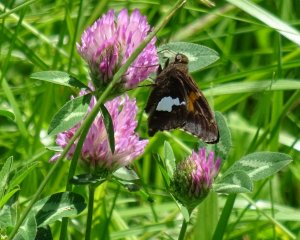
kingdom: Animalia
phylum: Arthropoda
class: Insecta
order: Lepidoptera
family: Hesperiidae
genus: Epargyreus
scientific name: Epargyreus clarus
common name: Silver-spotted Skipper
